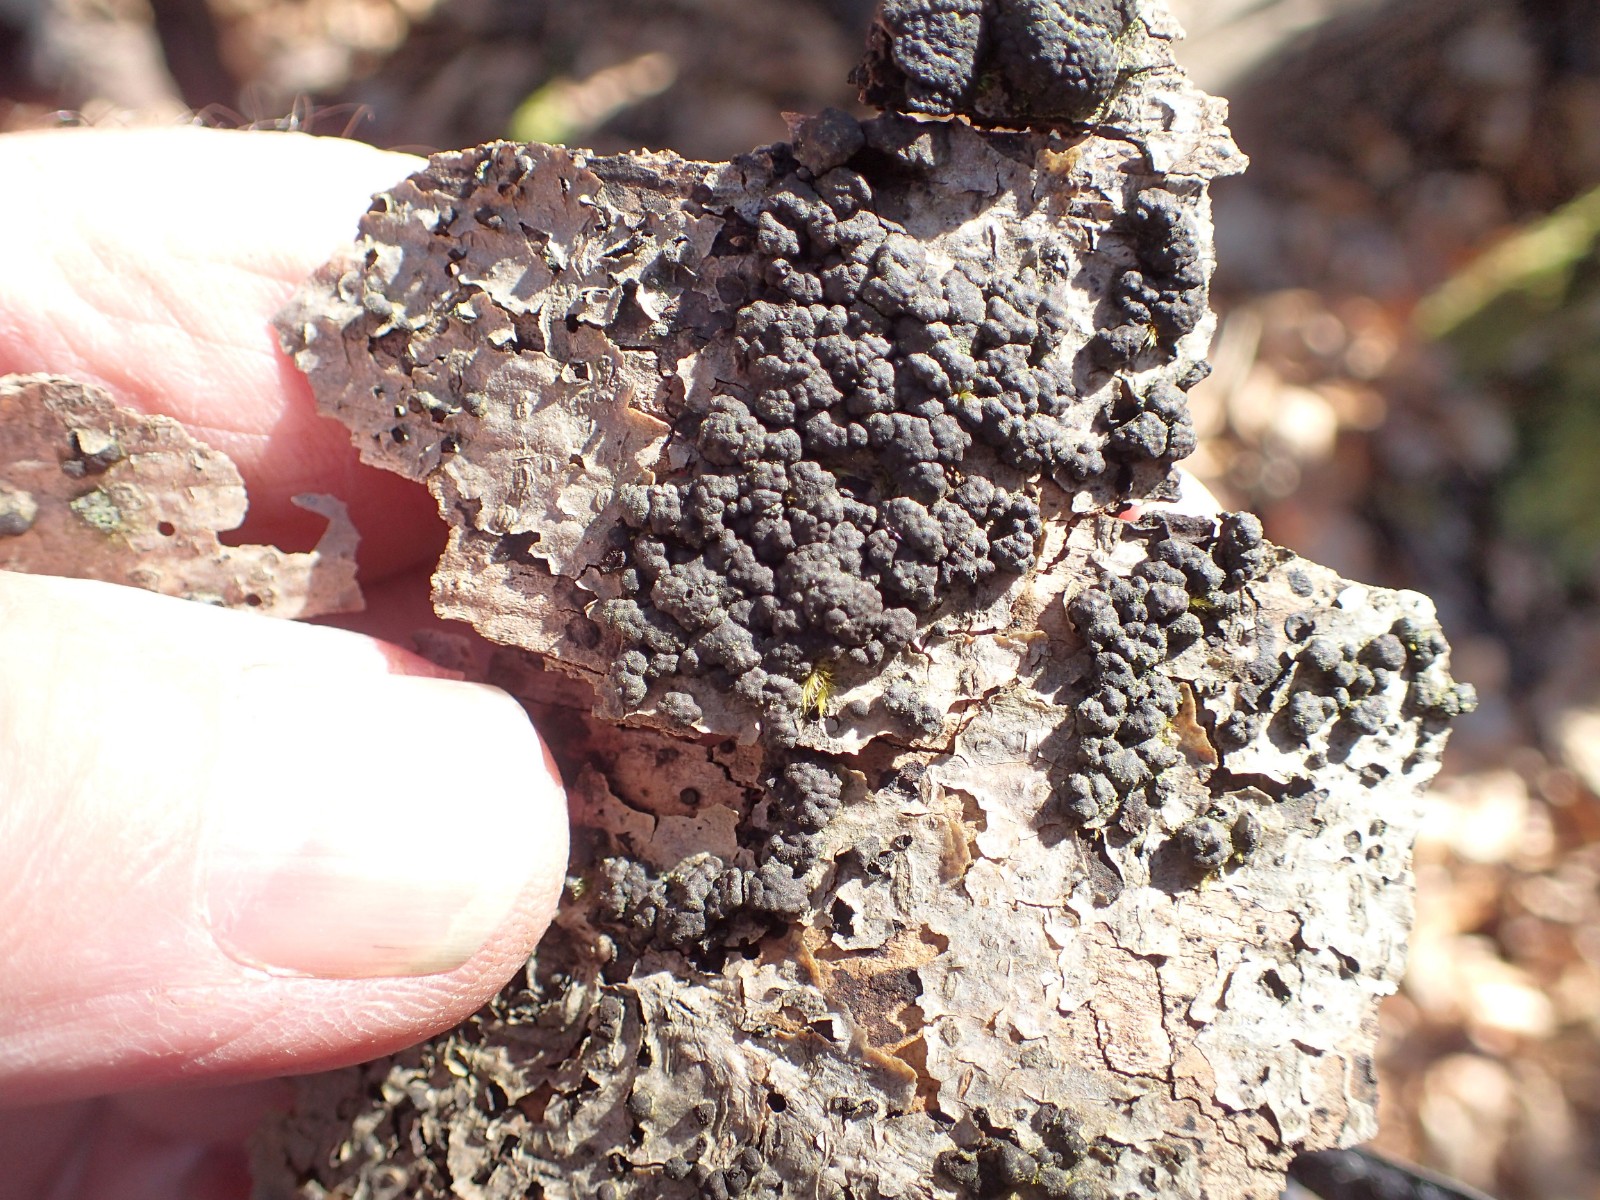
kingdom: Fungi
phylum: Ascomycota
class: Sordariomycetes
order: Xylariales
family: Hypoxylaceae
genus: Jackrogersella
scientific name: Jackrogersella cohaerens
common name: sammenflydende kulbær
